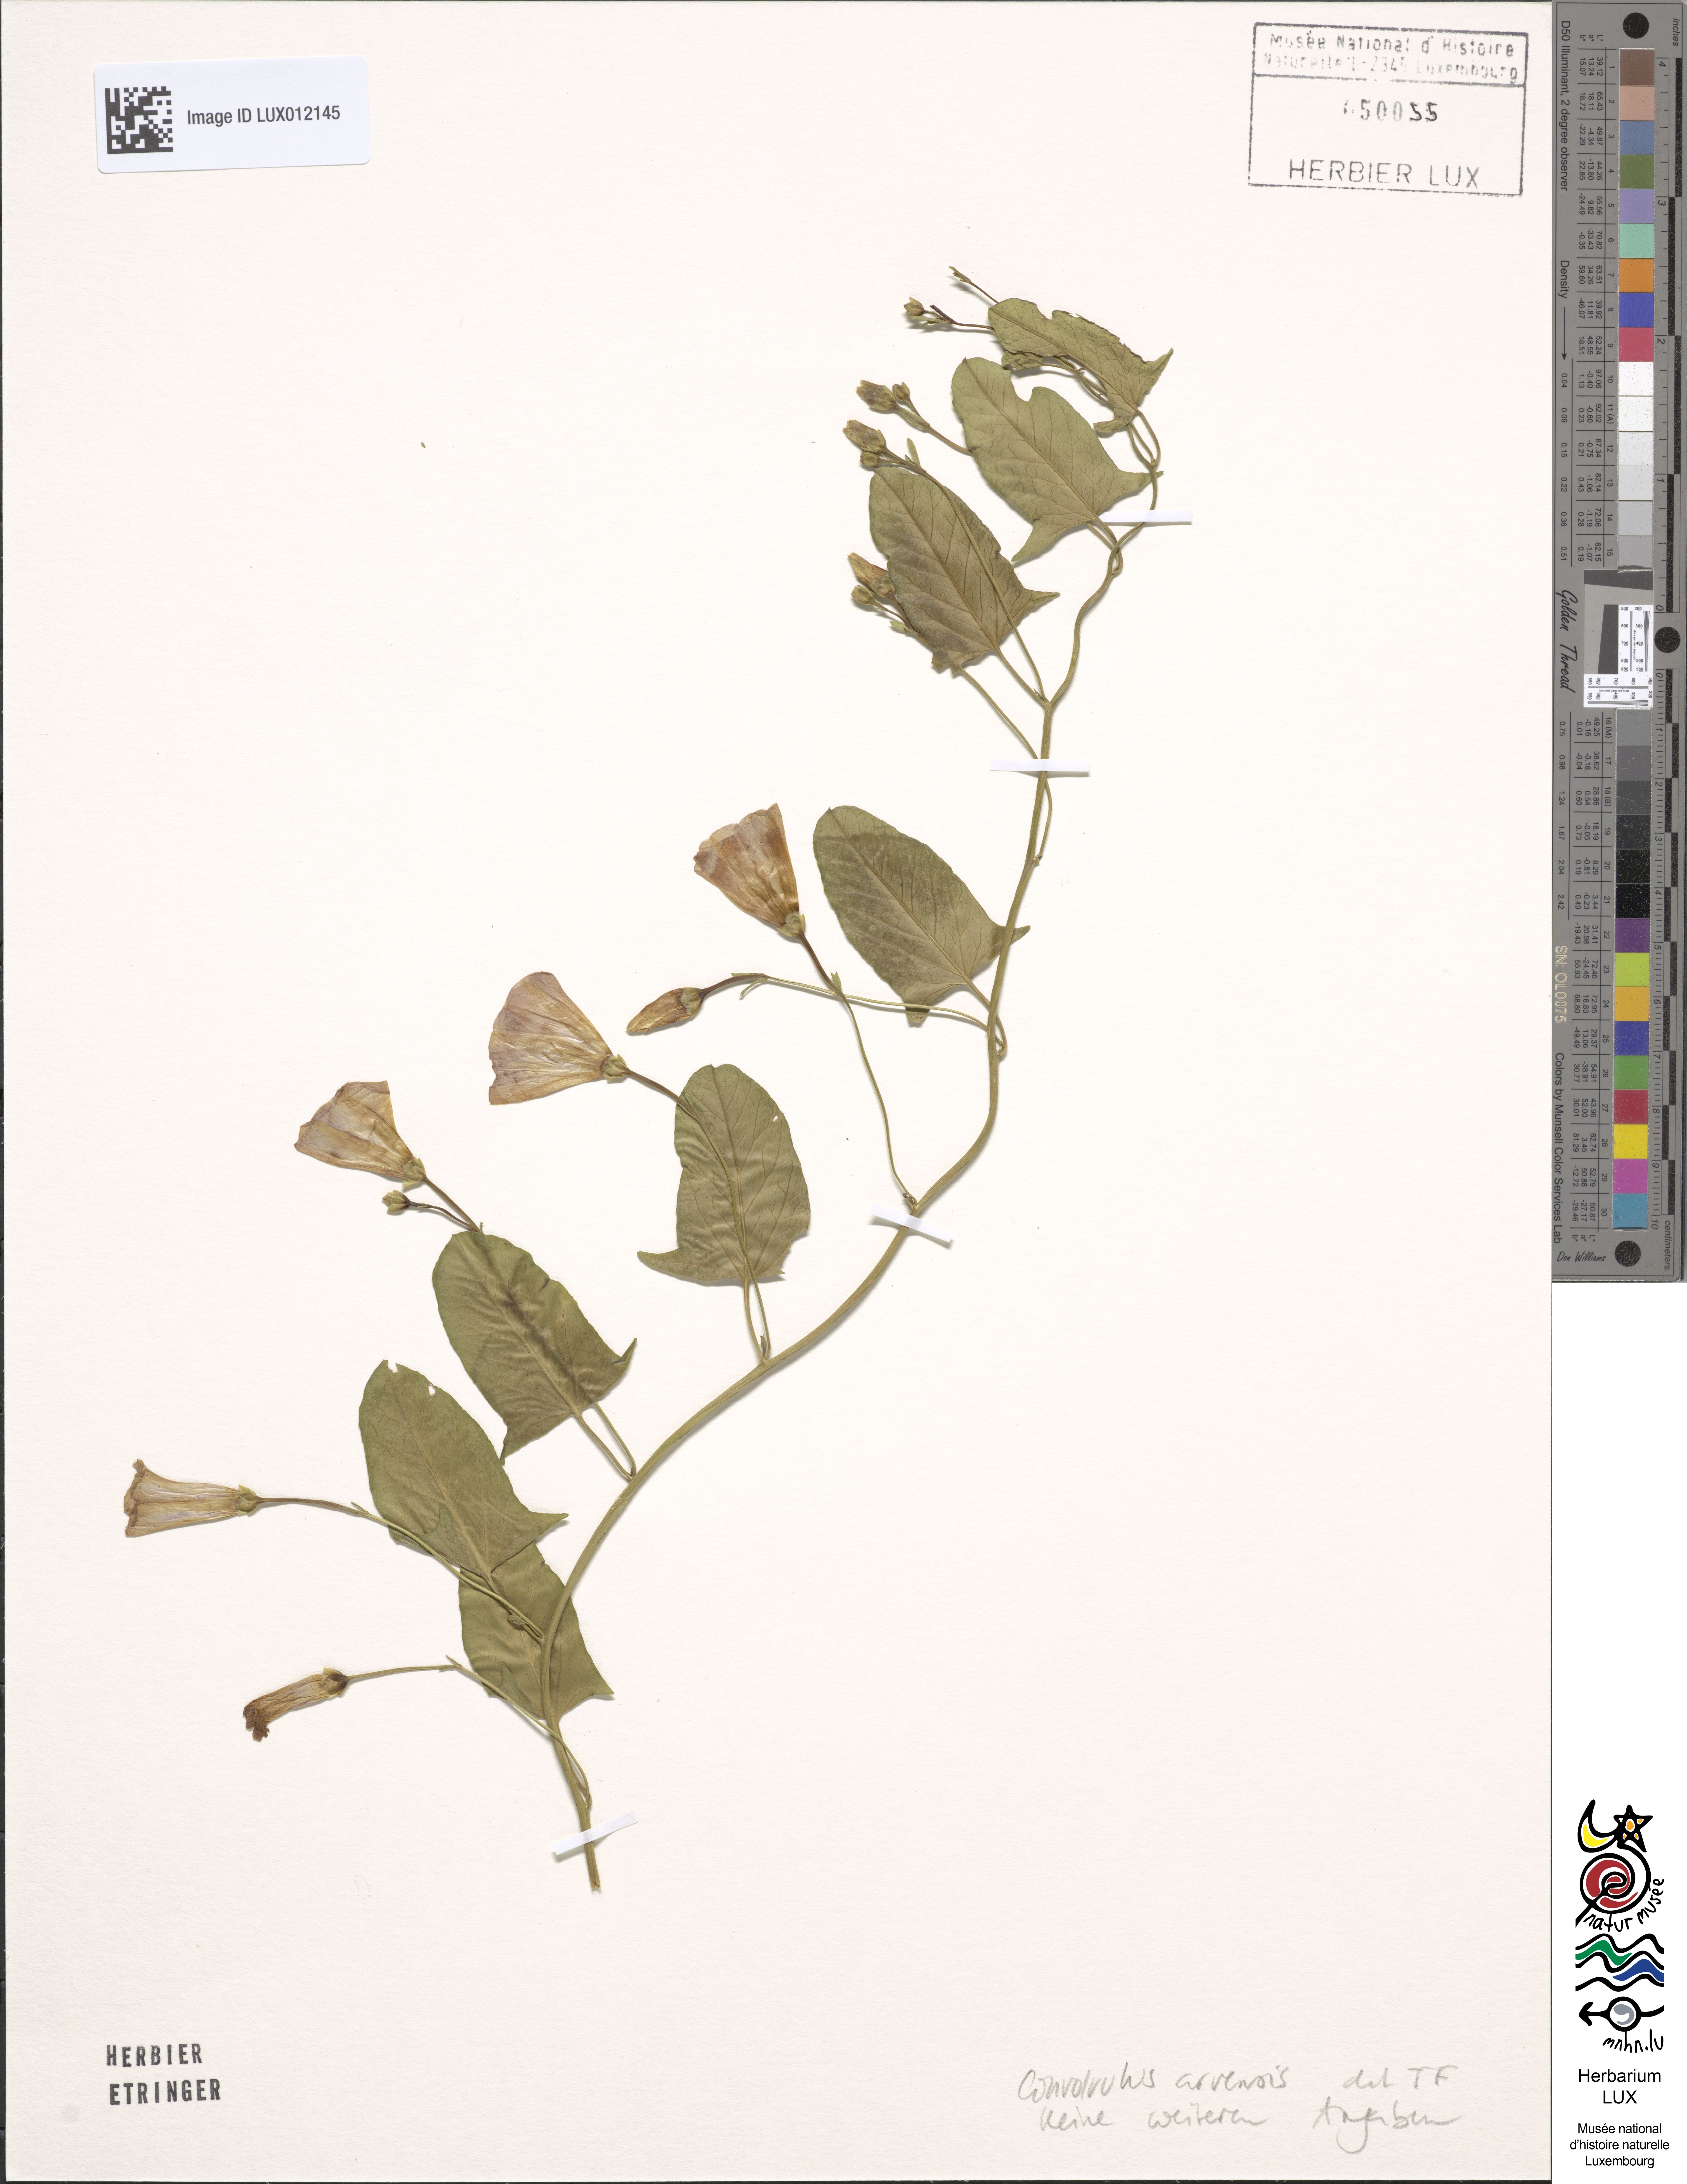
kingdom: Plantae
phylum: Tracheophyta
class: Magnoliopsida
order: Solanales
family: Convolvulaceae
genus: Convolvulus
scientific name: Convolvulus arvensis
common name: Field bindweed
